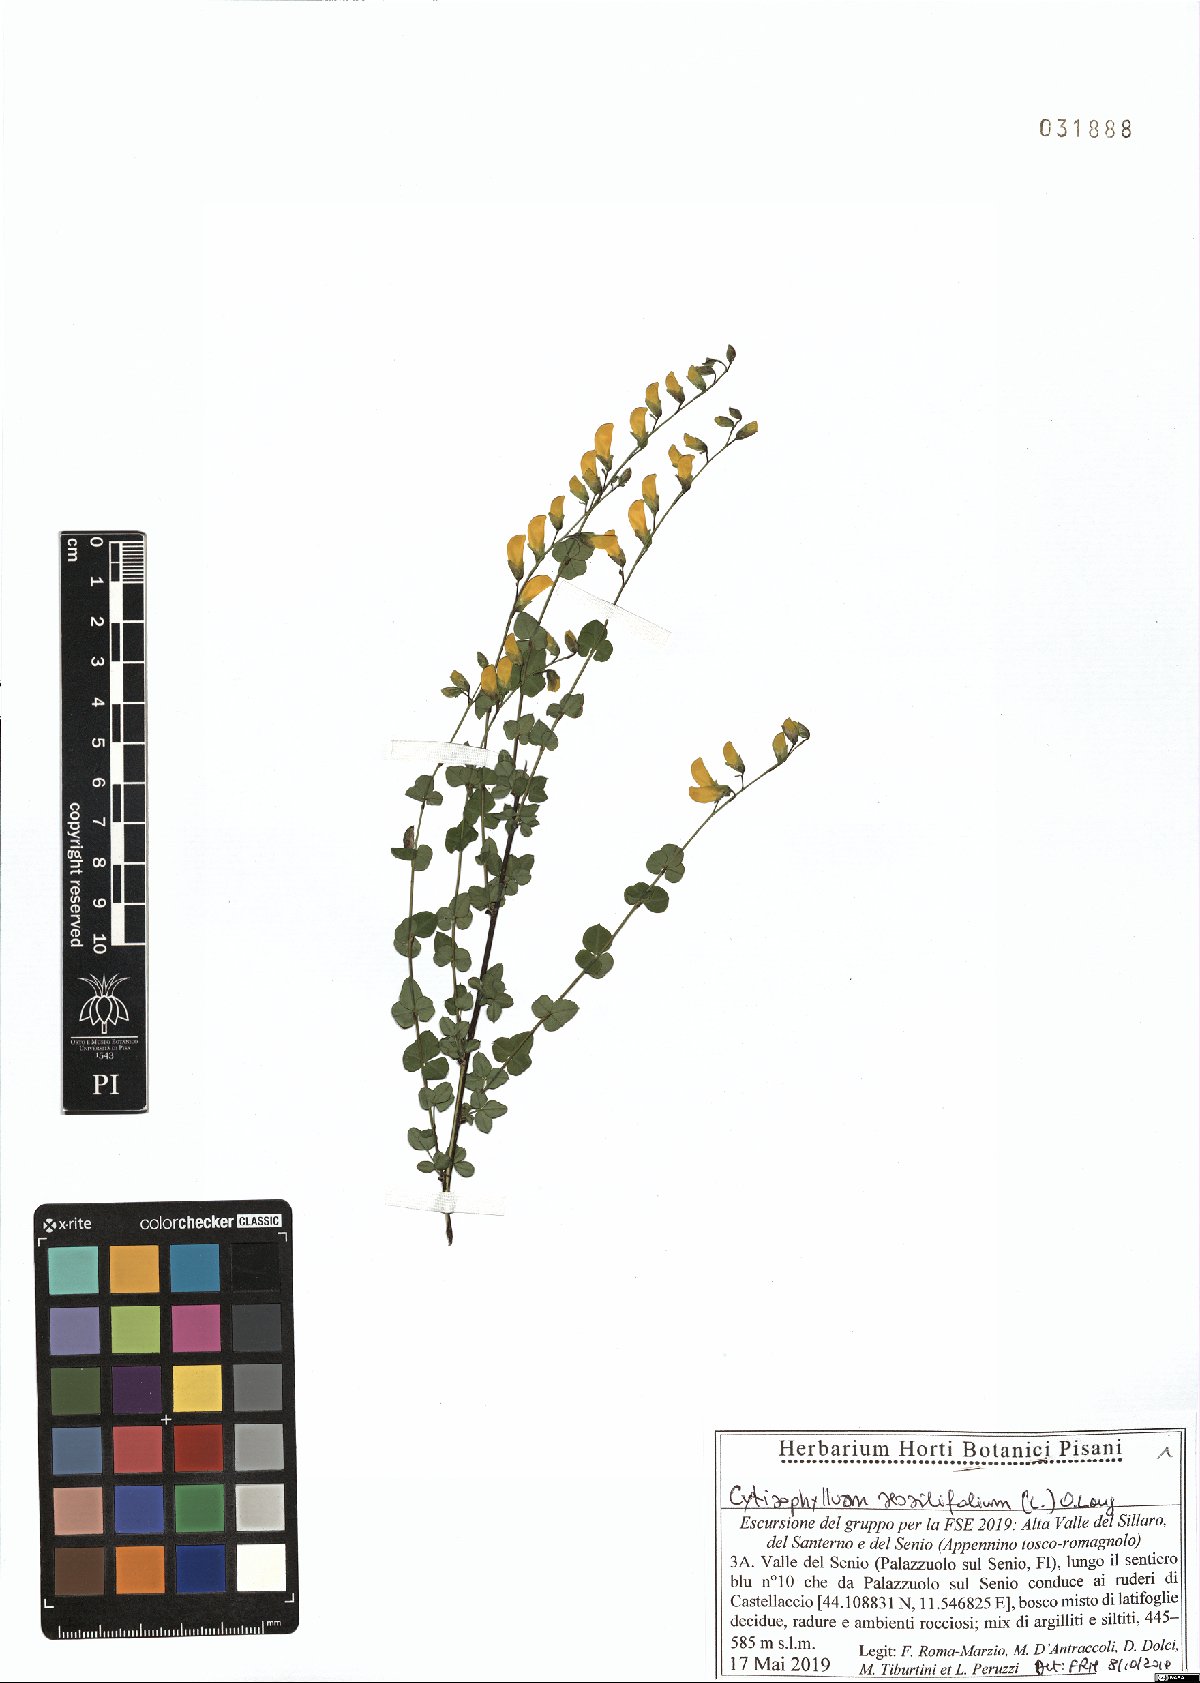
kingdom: Plantae
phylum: Tracheophyta
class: Magnoliopsida
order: Fabales
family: Fabaceae
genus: Cytisophyllum
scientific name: Cytisophyllum sessilifolium
